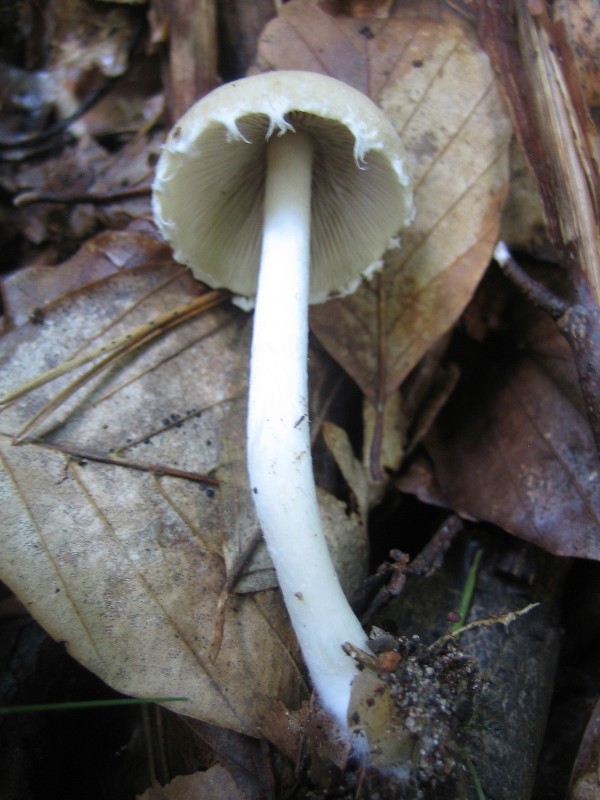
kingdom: Fungi
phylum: Basidiomycota
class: Agaricomycetes
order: Agaricales
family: Psathyrellaceae
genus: Candolleomyces
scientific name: Candolleomyces candolleanus
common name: Candolles mørkhat
